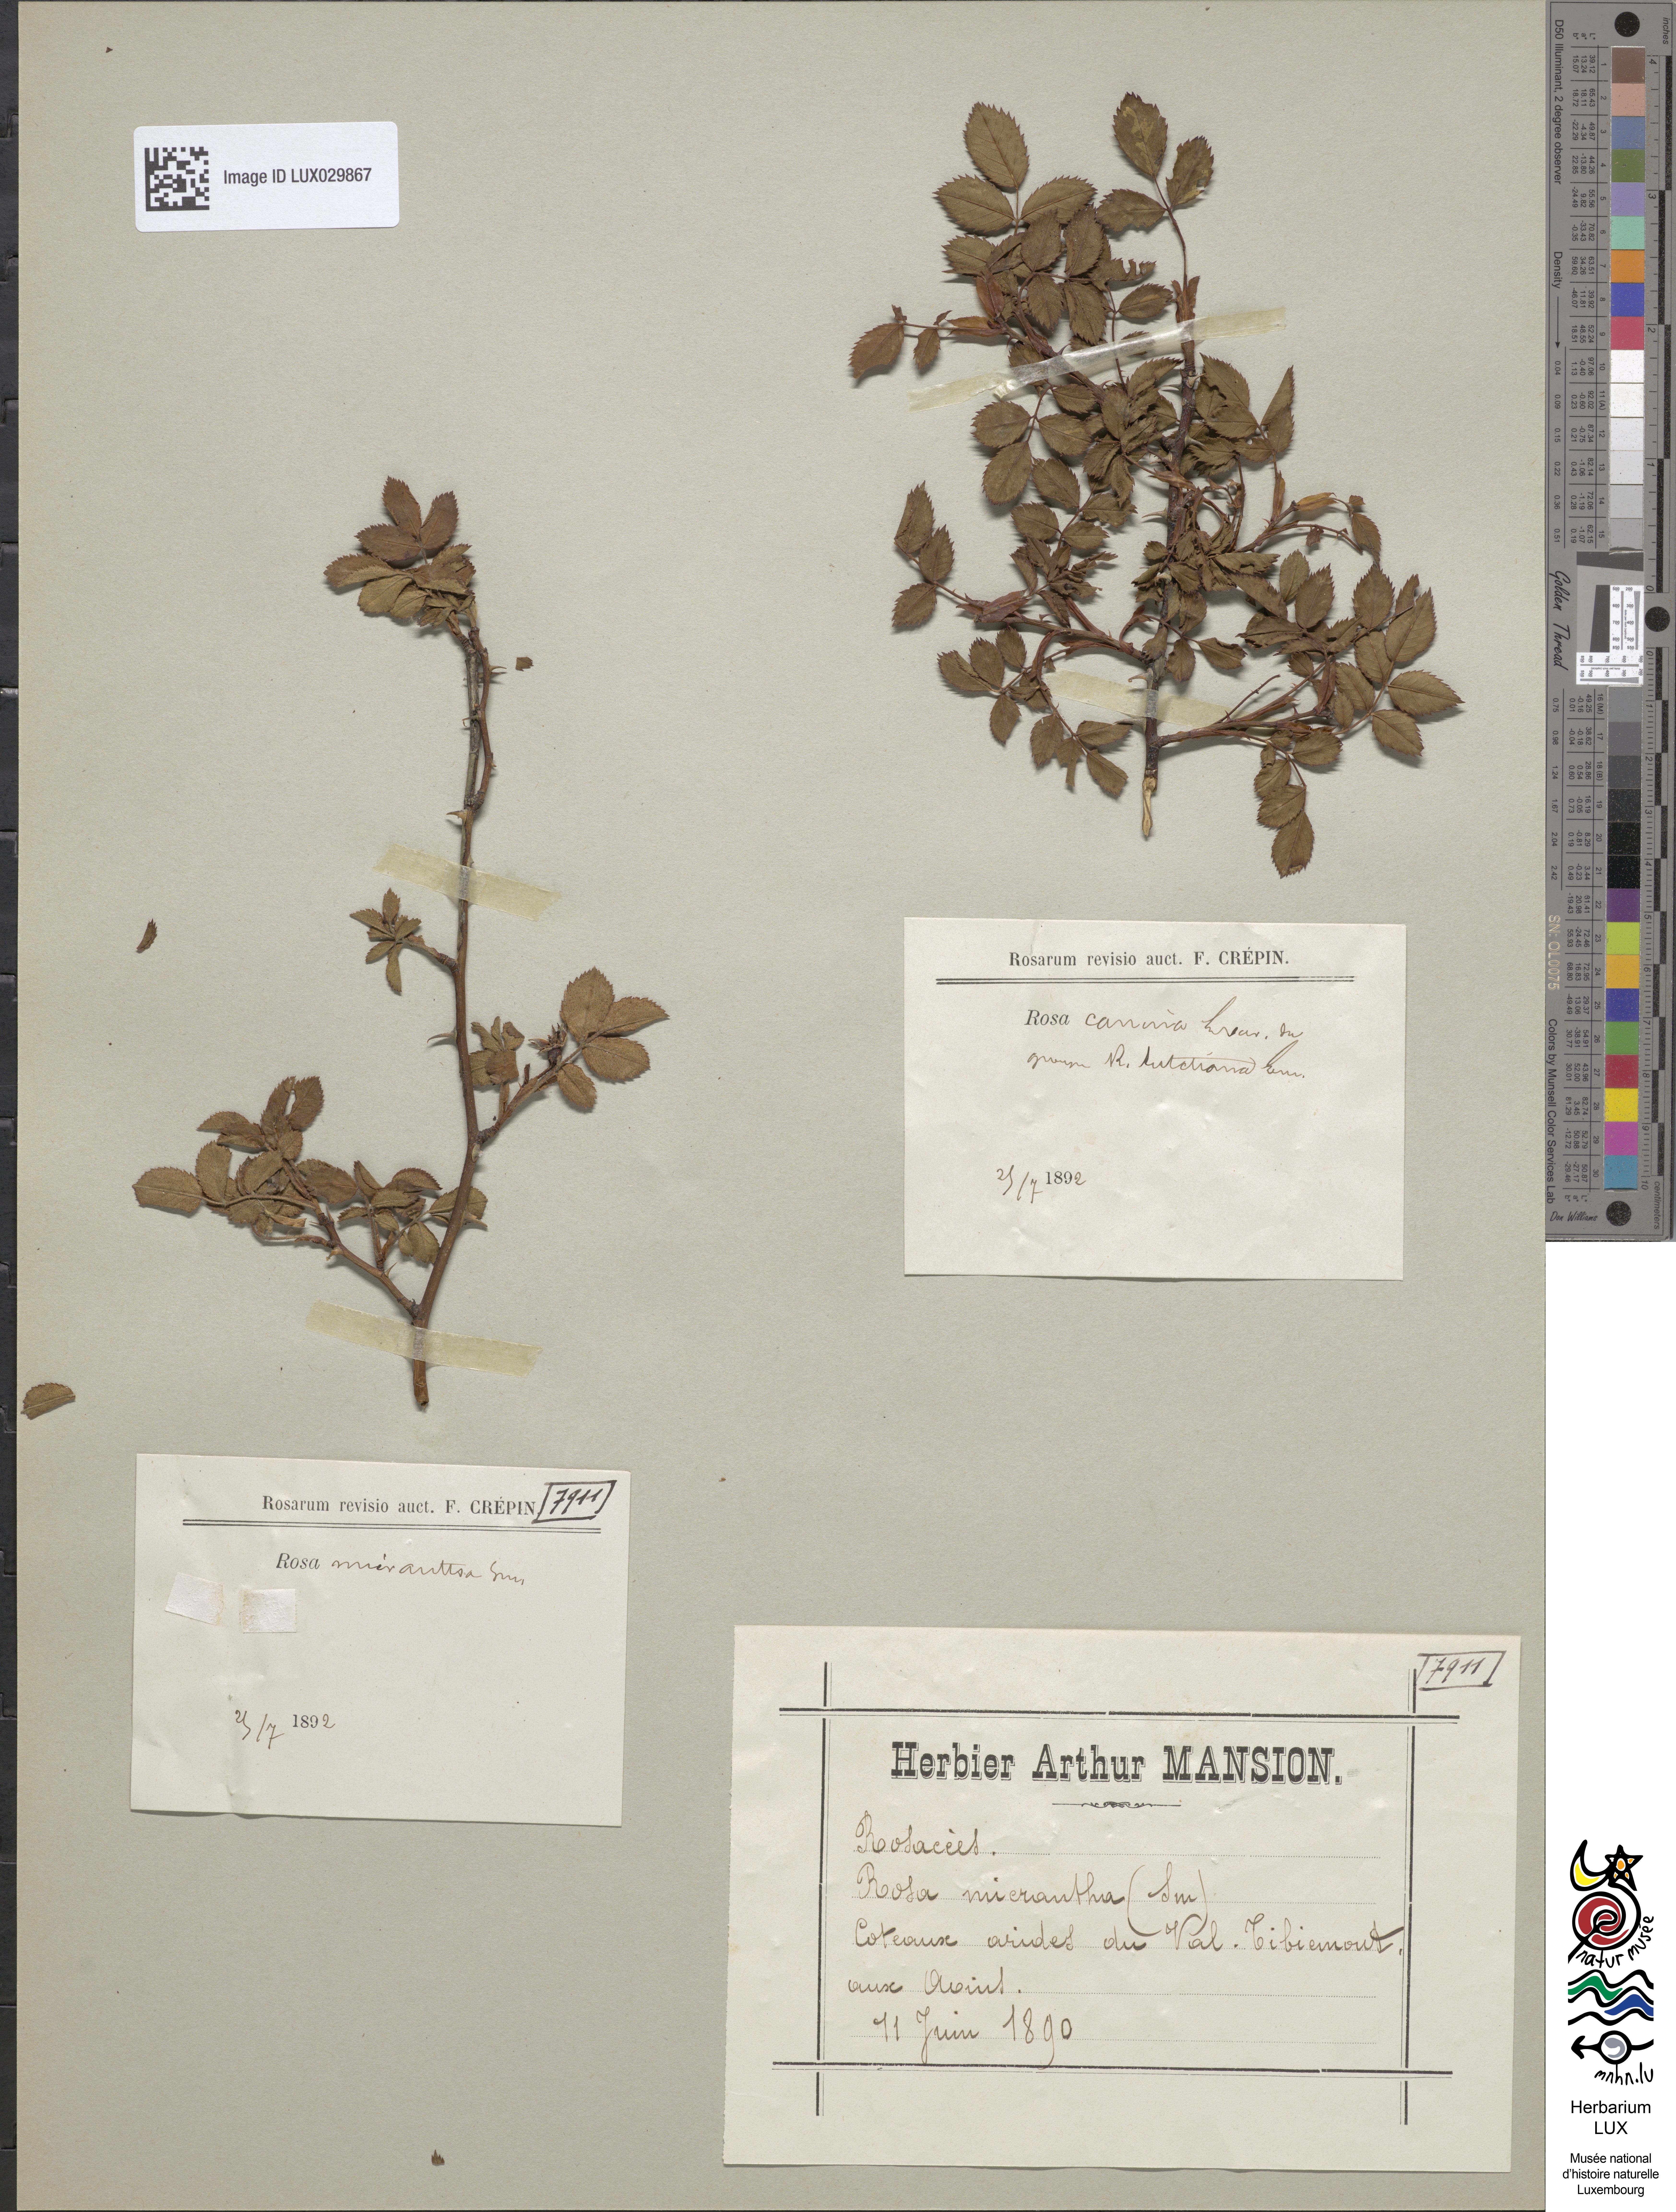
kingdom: Plantae
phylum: Tracheophyta
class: Magnoliopsida
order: Rosales
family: Rosaceae
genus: Rosa
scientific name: Rosa micrantha
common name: Small-flowered sweet-briar
